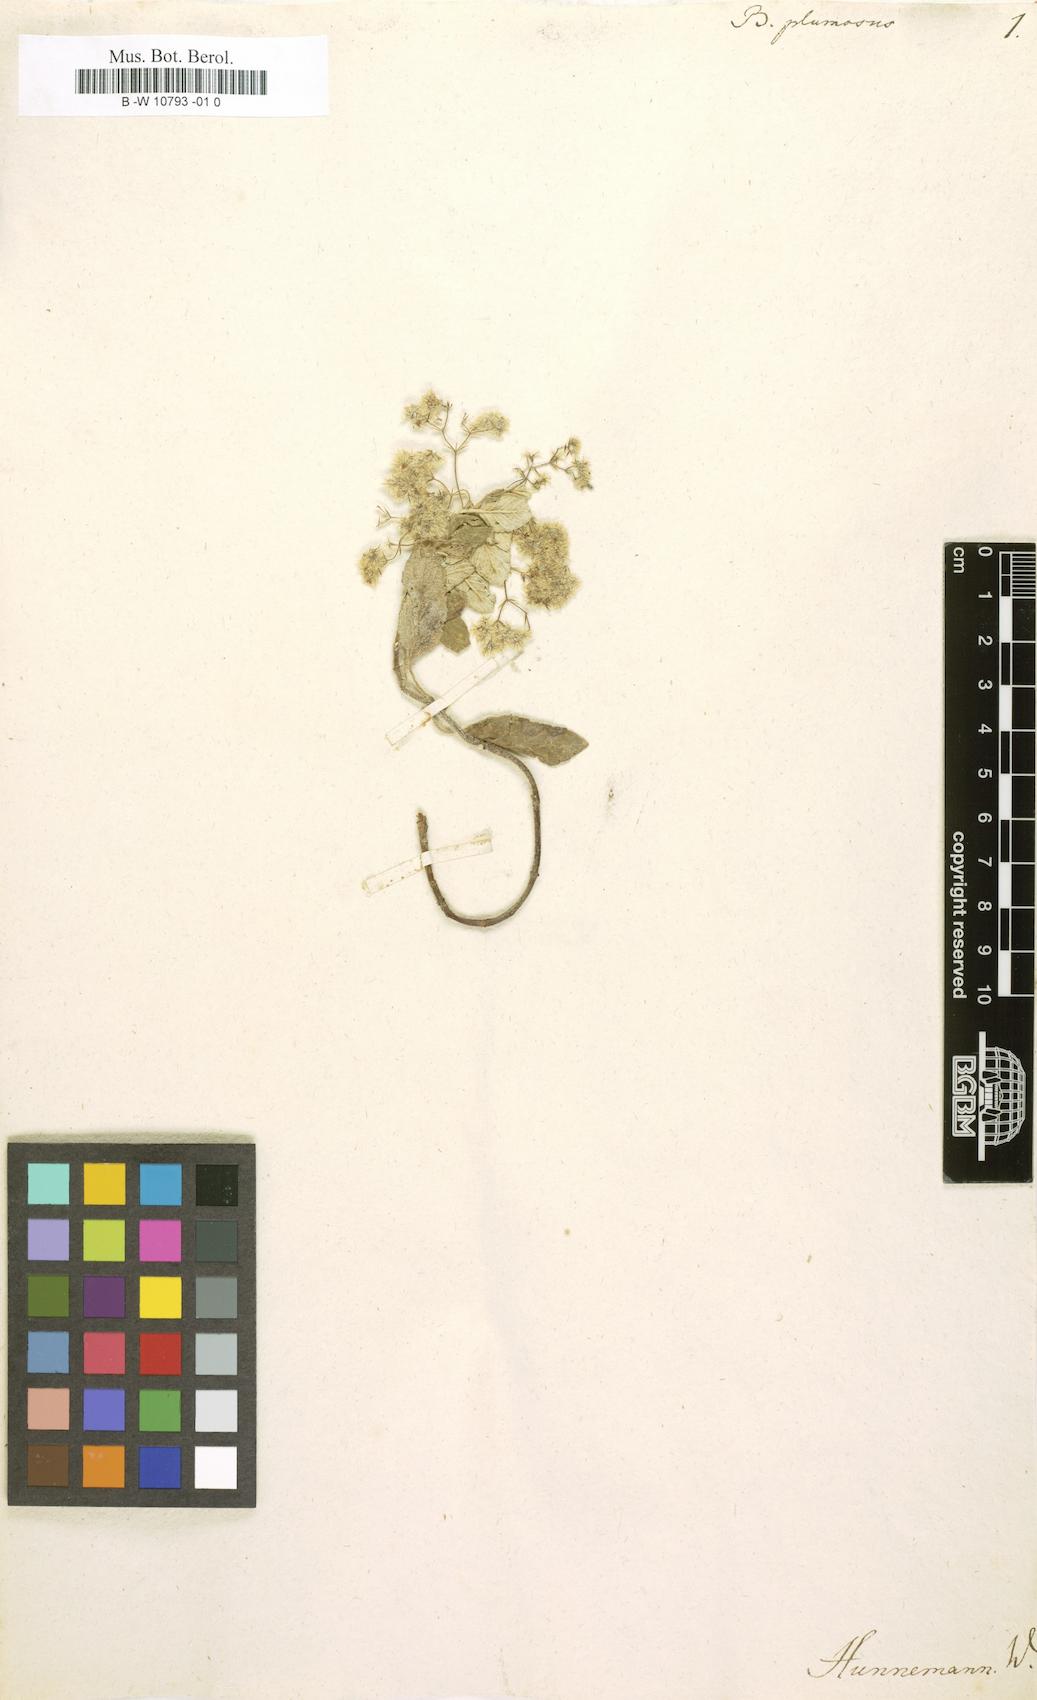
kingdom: Plantae
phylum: Tracheophyta
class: Magnoliopsida
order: Lamiales
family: Lamiaceae
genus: Bystropogon
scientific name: Bystropogon plumosus
